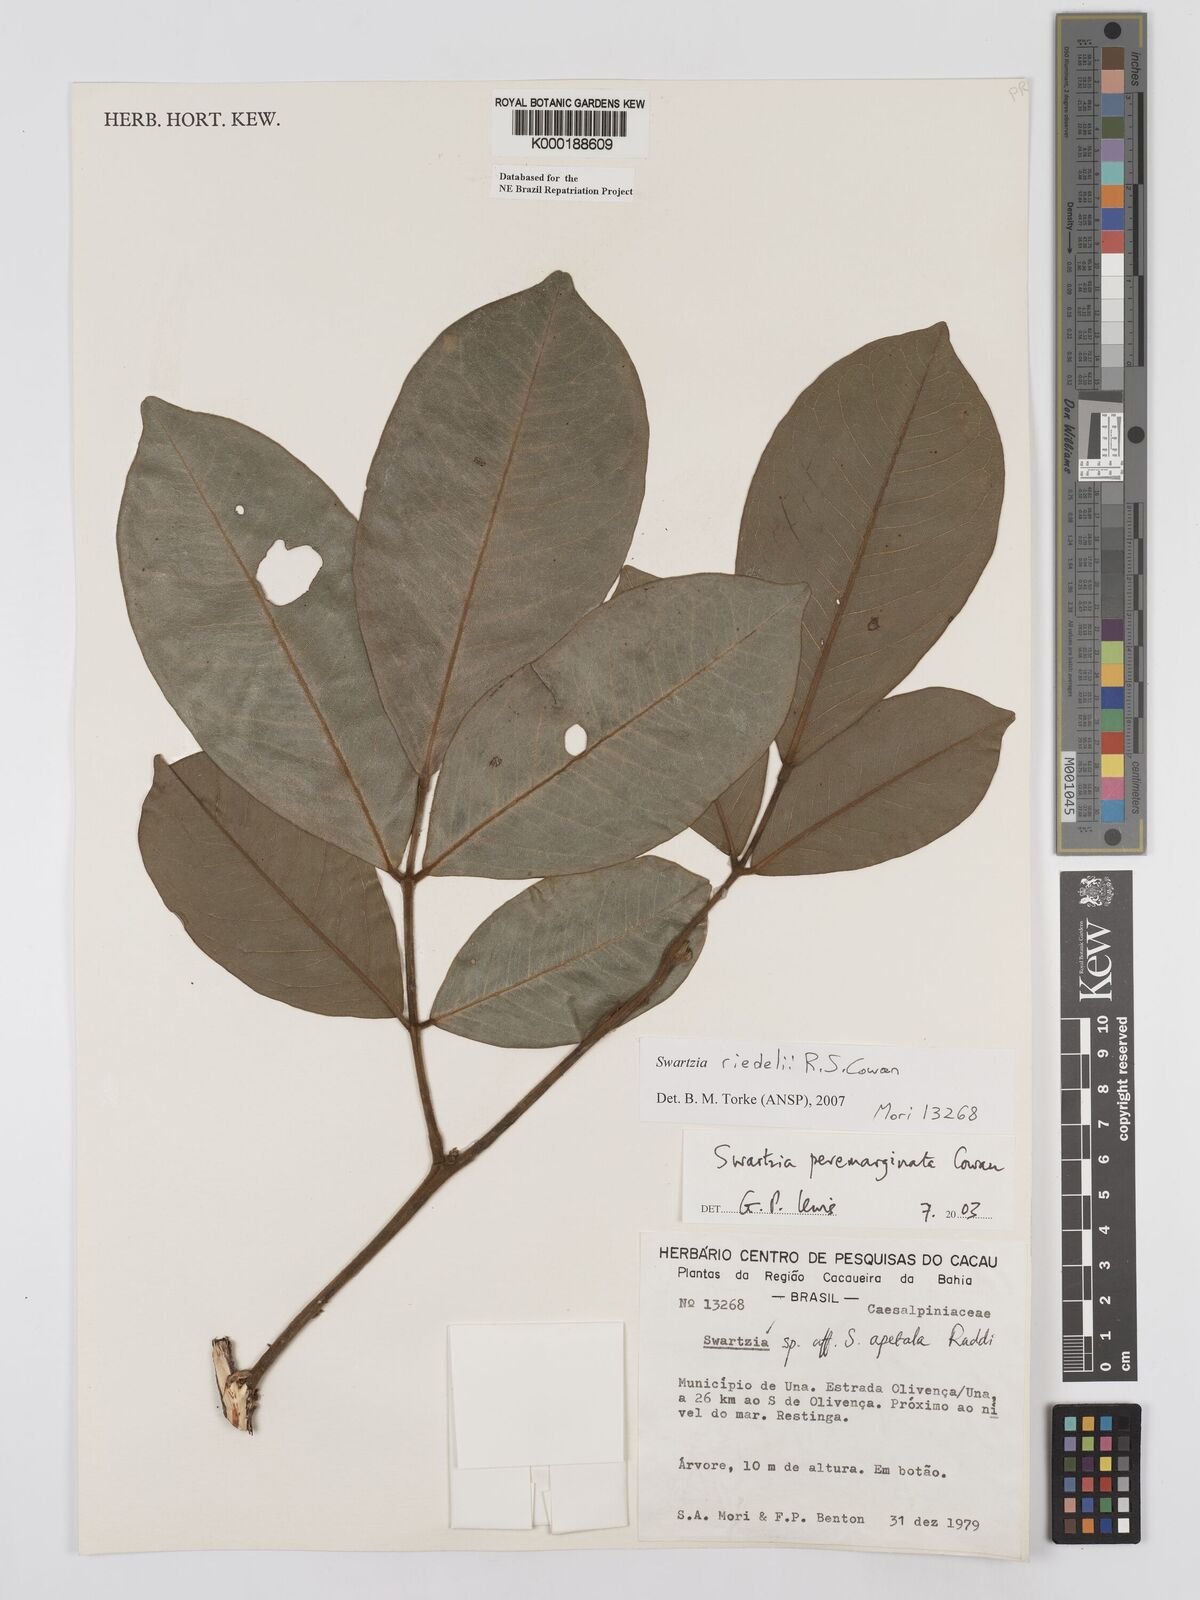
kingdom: Plantae
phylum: Tracheophyta
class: Magnoliopsida
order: Fabales
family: Fabaceae
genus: Swartzia
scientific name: Swartzia riedelii
